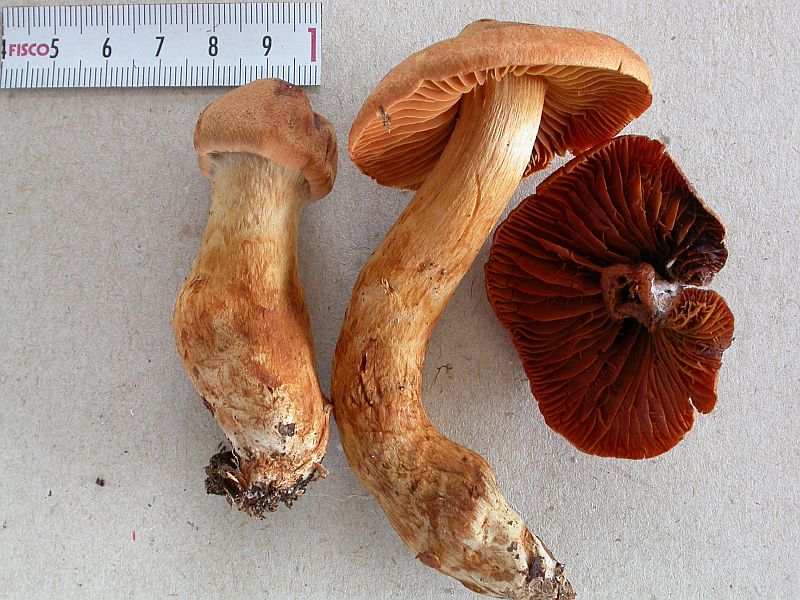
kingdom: Fungi
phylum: Basidiomycota
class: Agaricomycetes
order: Agaricales
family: Cortinariaceae
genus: Cortinarius
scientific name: Cortinarius rubellus
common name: puklet gift-slørhat
